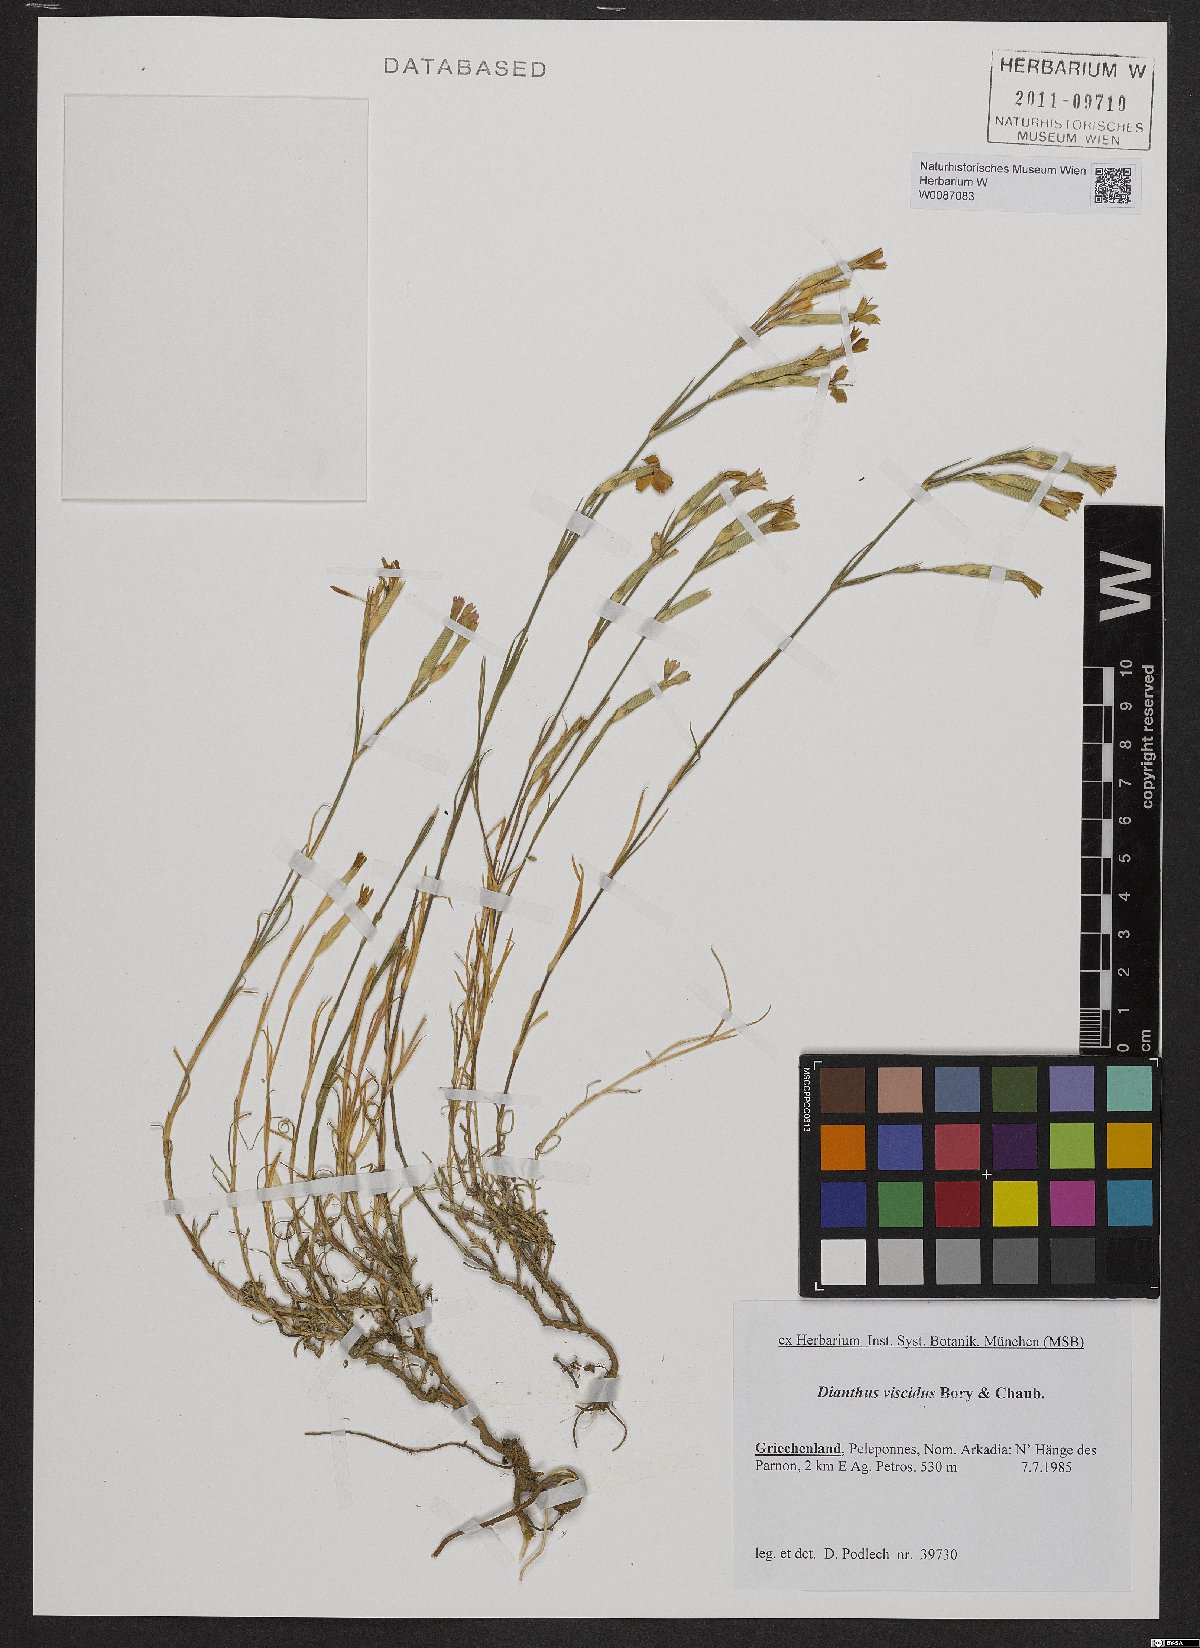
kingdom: Plantae
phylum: Tracheophyta
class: Magnoliopsida
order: Caryophyllales
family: Caryophyllaceae
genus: Dianthus
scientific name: Dianthus viscidus
